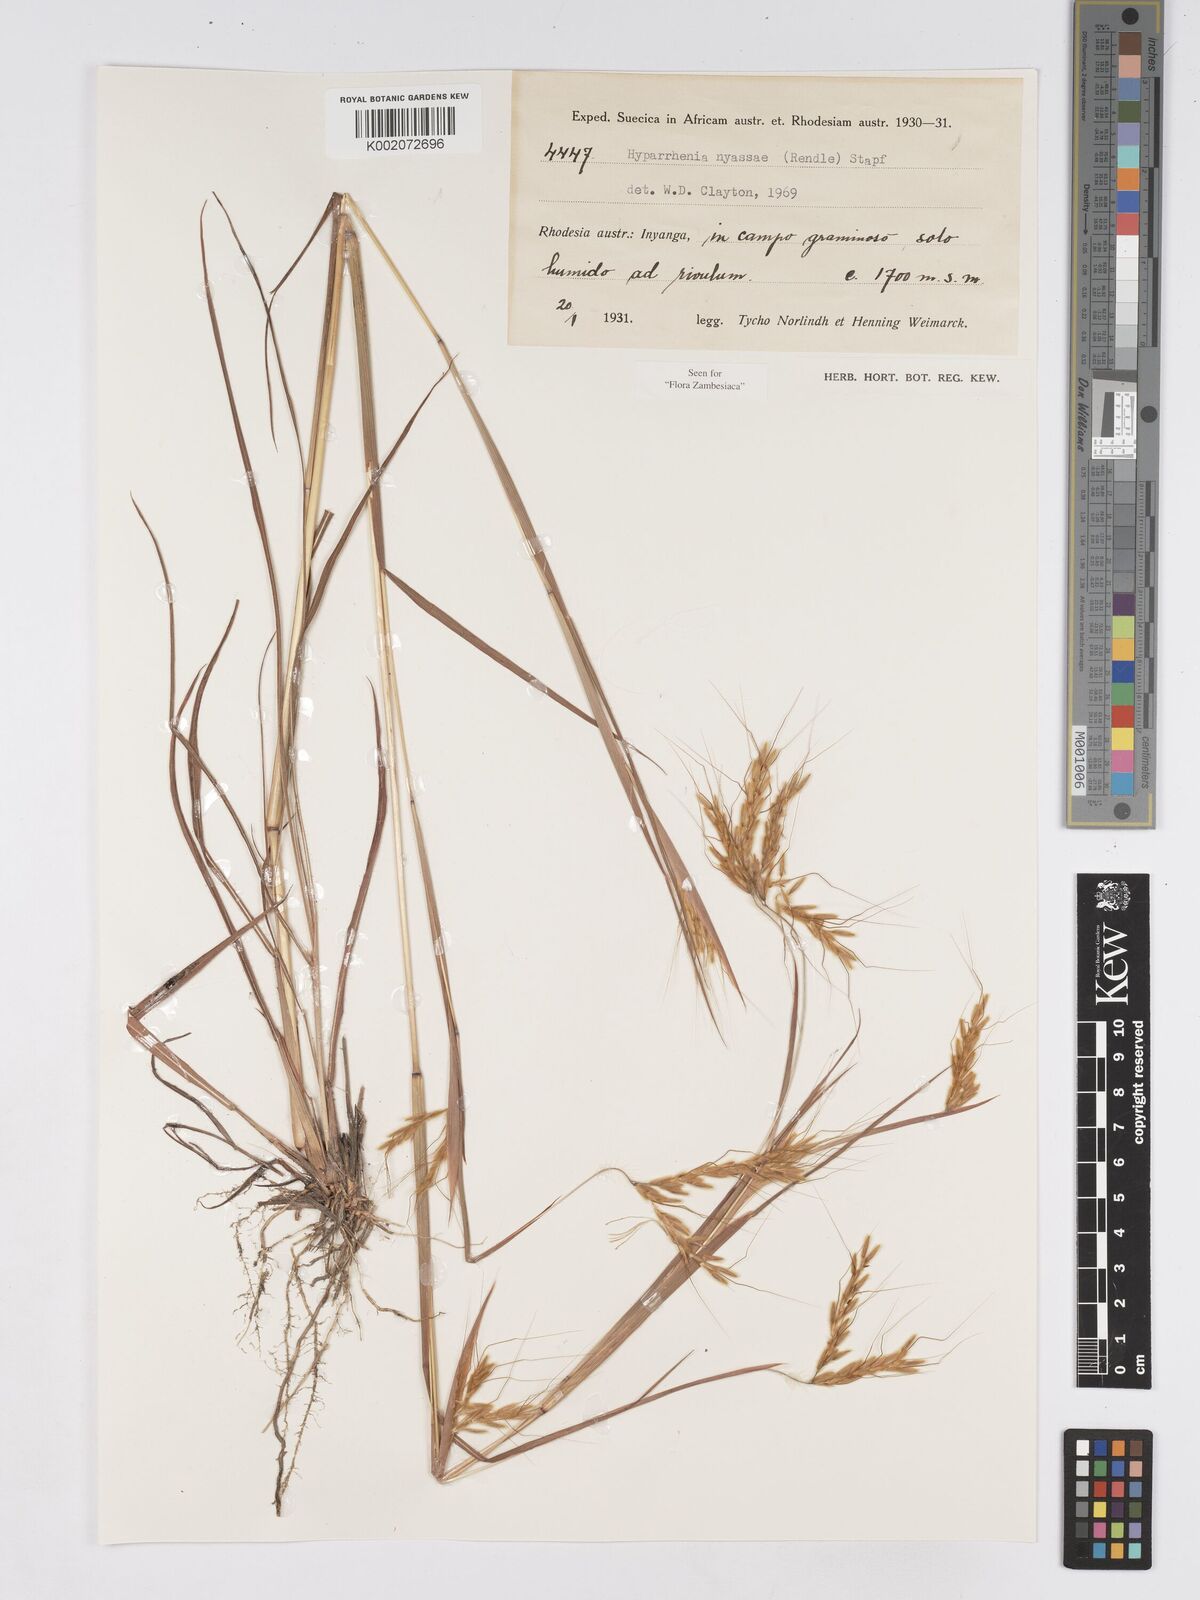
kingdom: Plantae
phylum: Tracheophyta
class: Liliopsida
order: Poales
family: Poaceae
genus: Hyparrhenia
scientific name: Hyparrhenia nyassae
